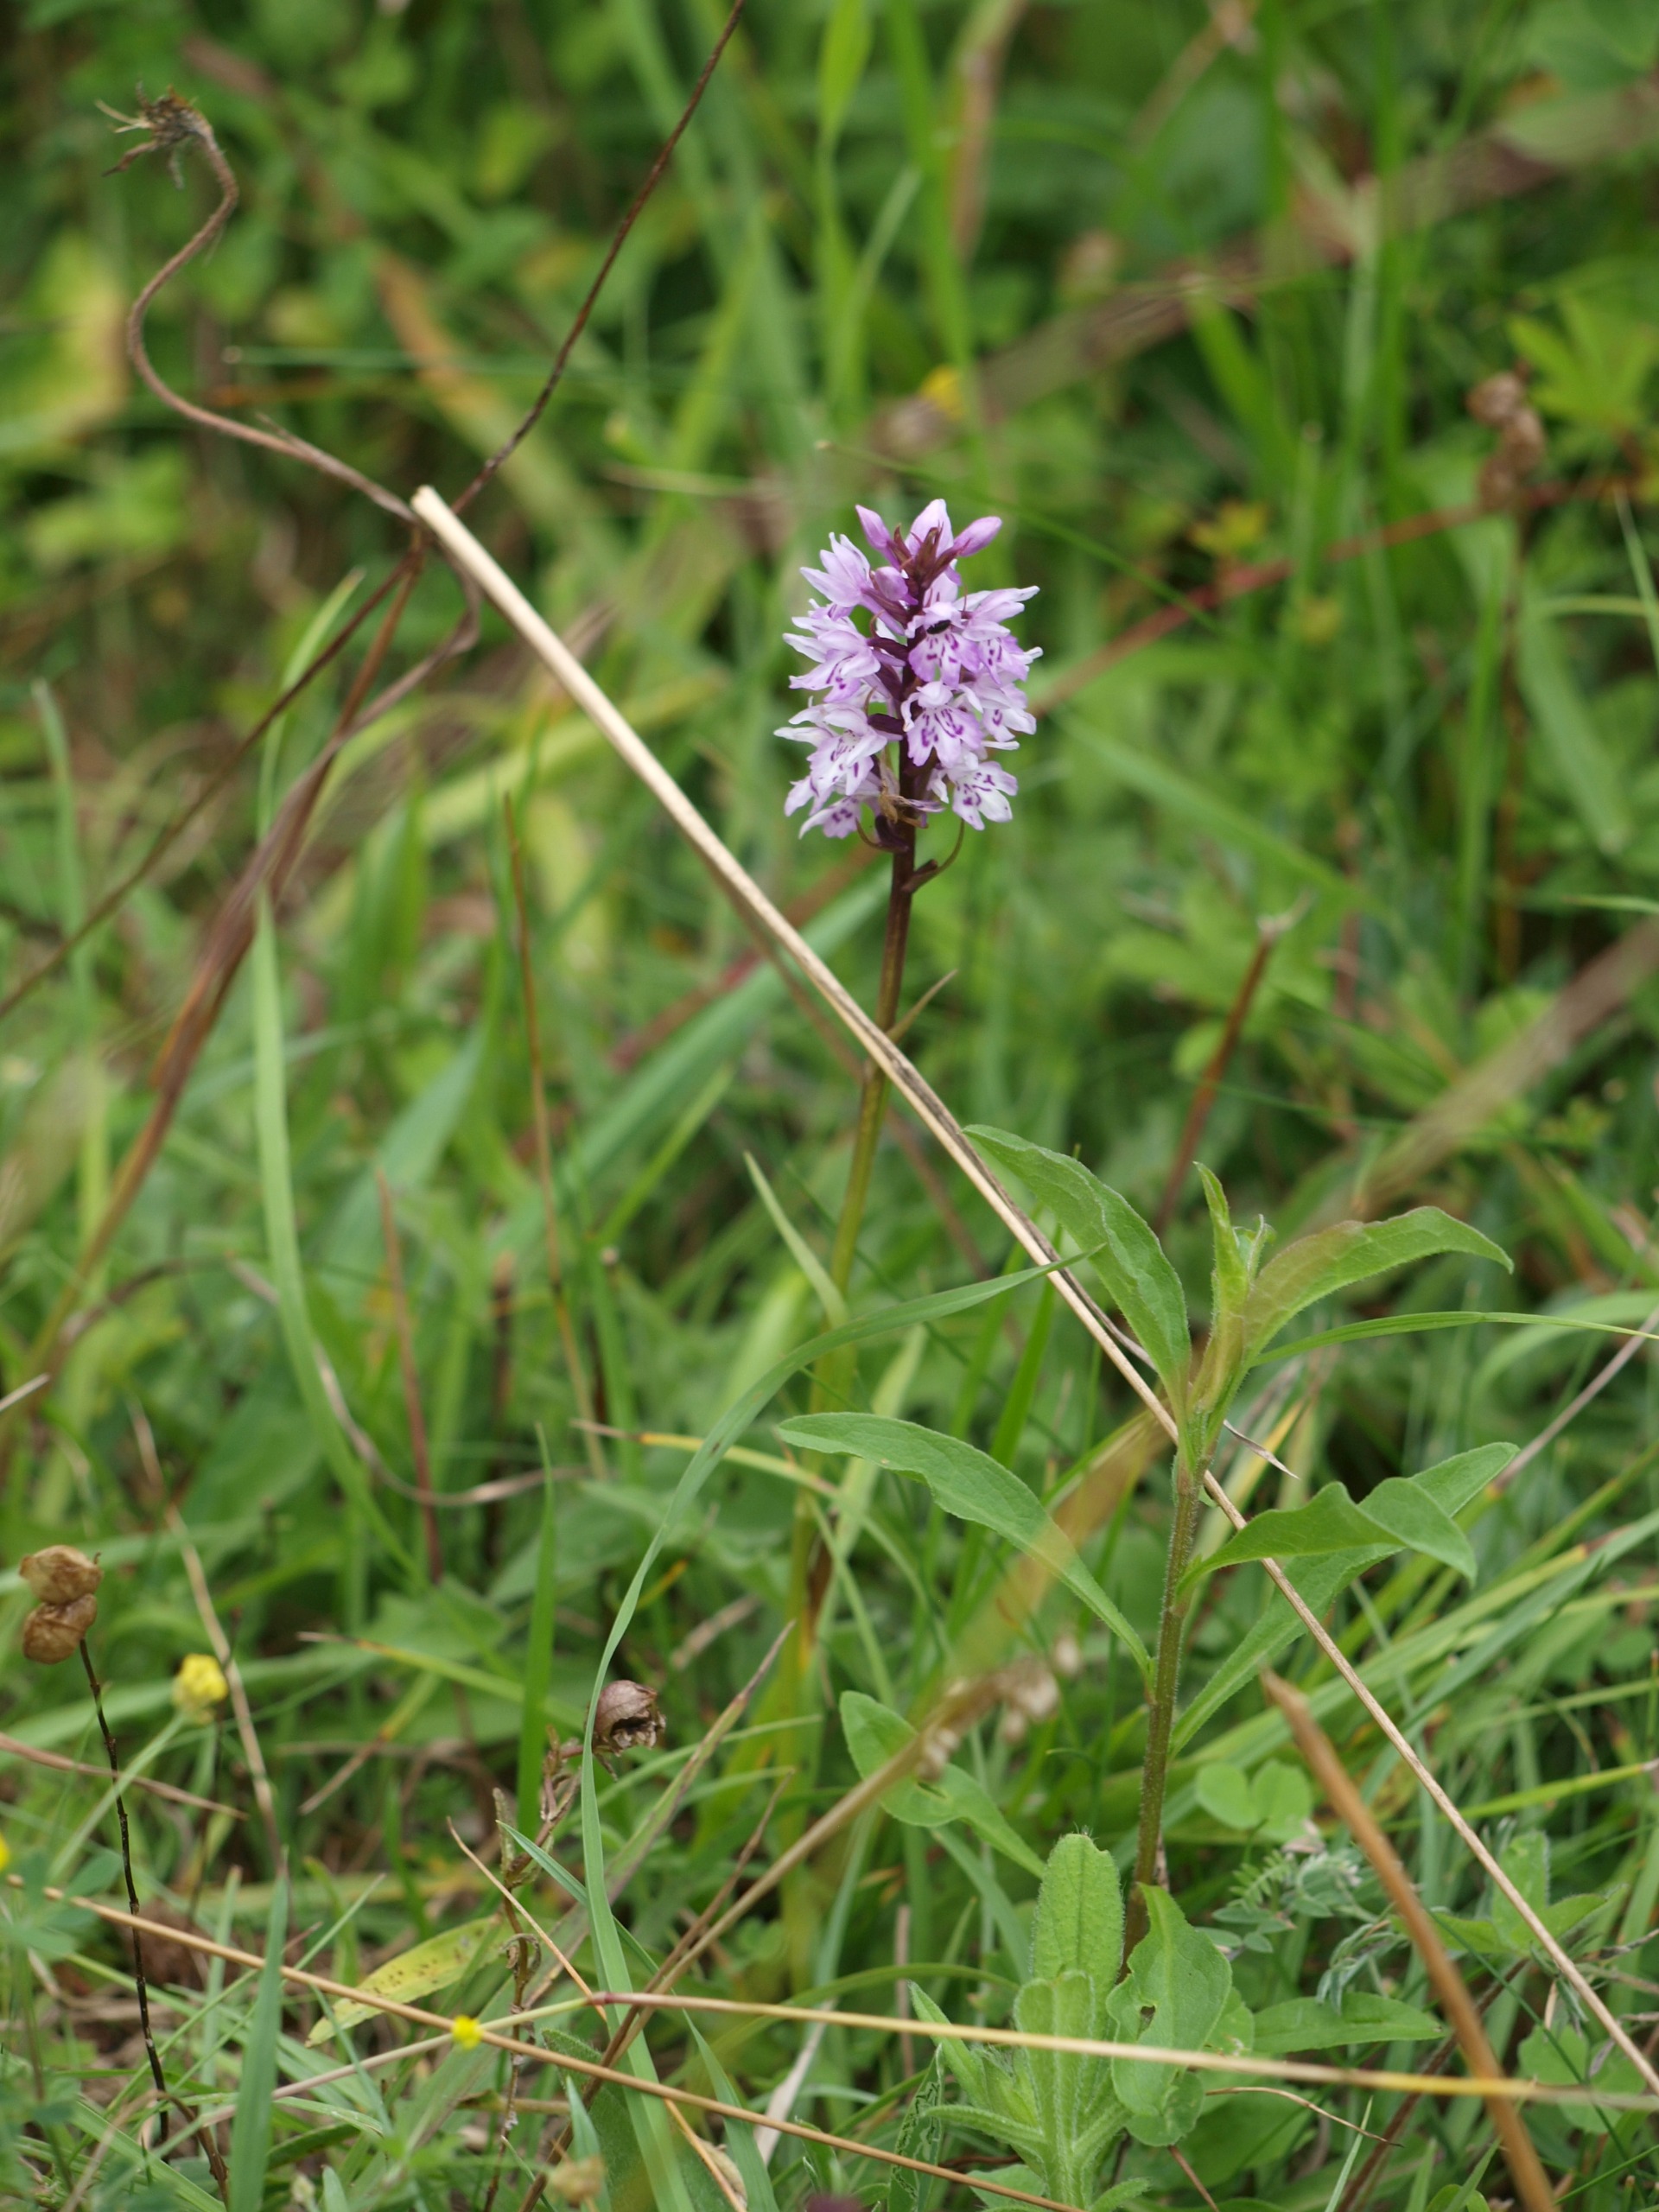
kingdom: Plantae
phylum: Tracheophyta
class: Liliopsida
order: Asparagales
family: Orchidaceae
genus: Dactylorhiza
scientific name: Dactylorhiza maculata
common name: Skov-gøgeurt
